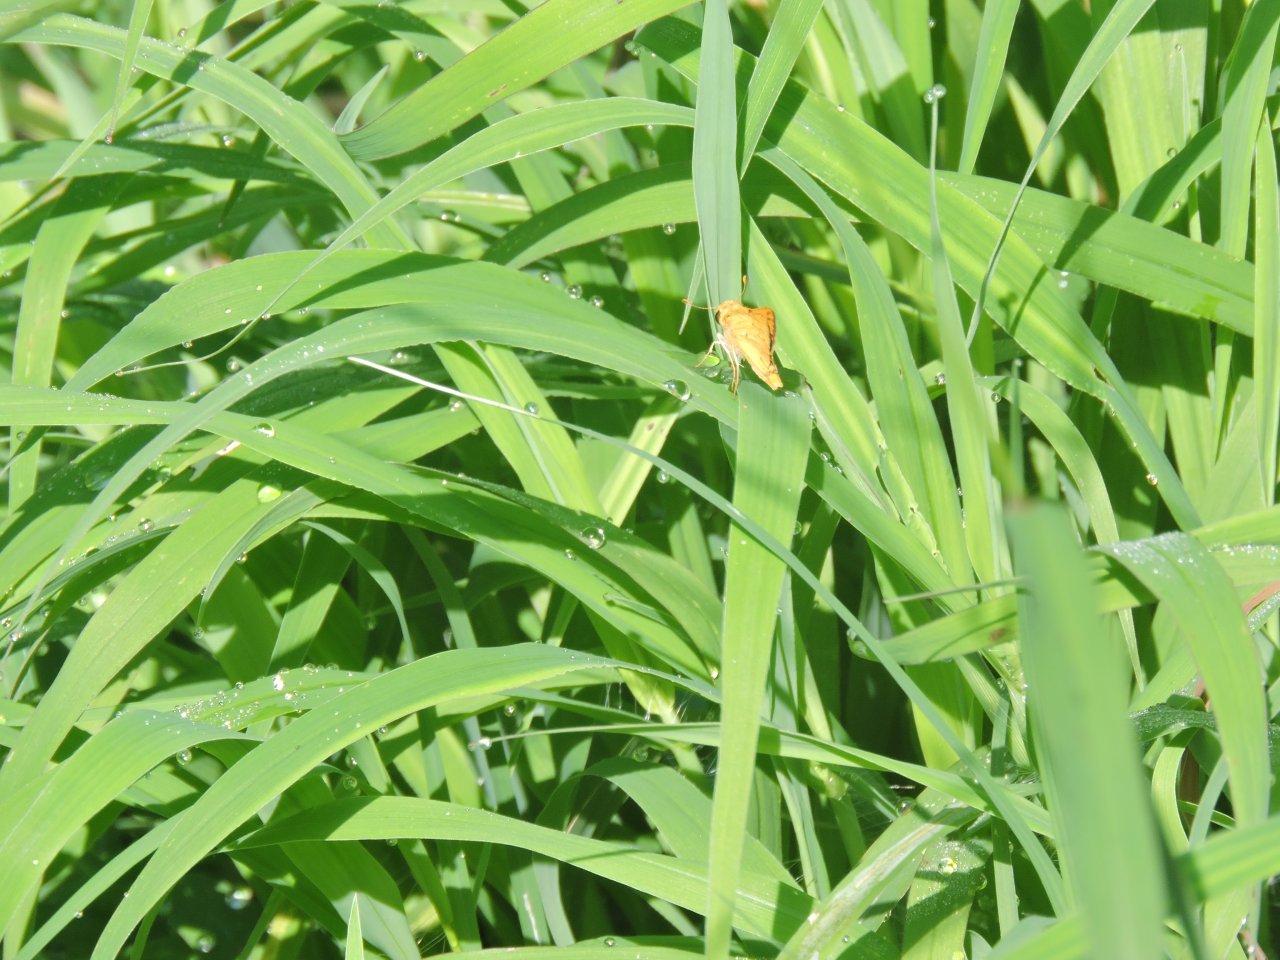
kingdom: Animalia
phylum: Arthropoda
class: Insecta
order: Lepidoptera
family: Hesperiidae
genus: Hylephila
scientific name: Hylephila phyleus
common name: Fiery Skipper
